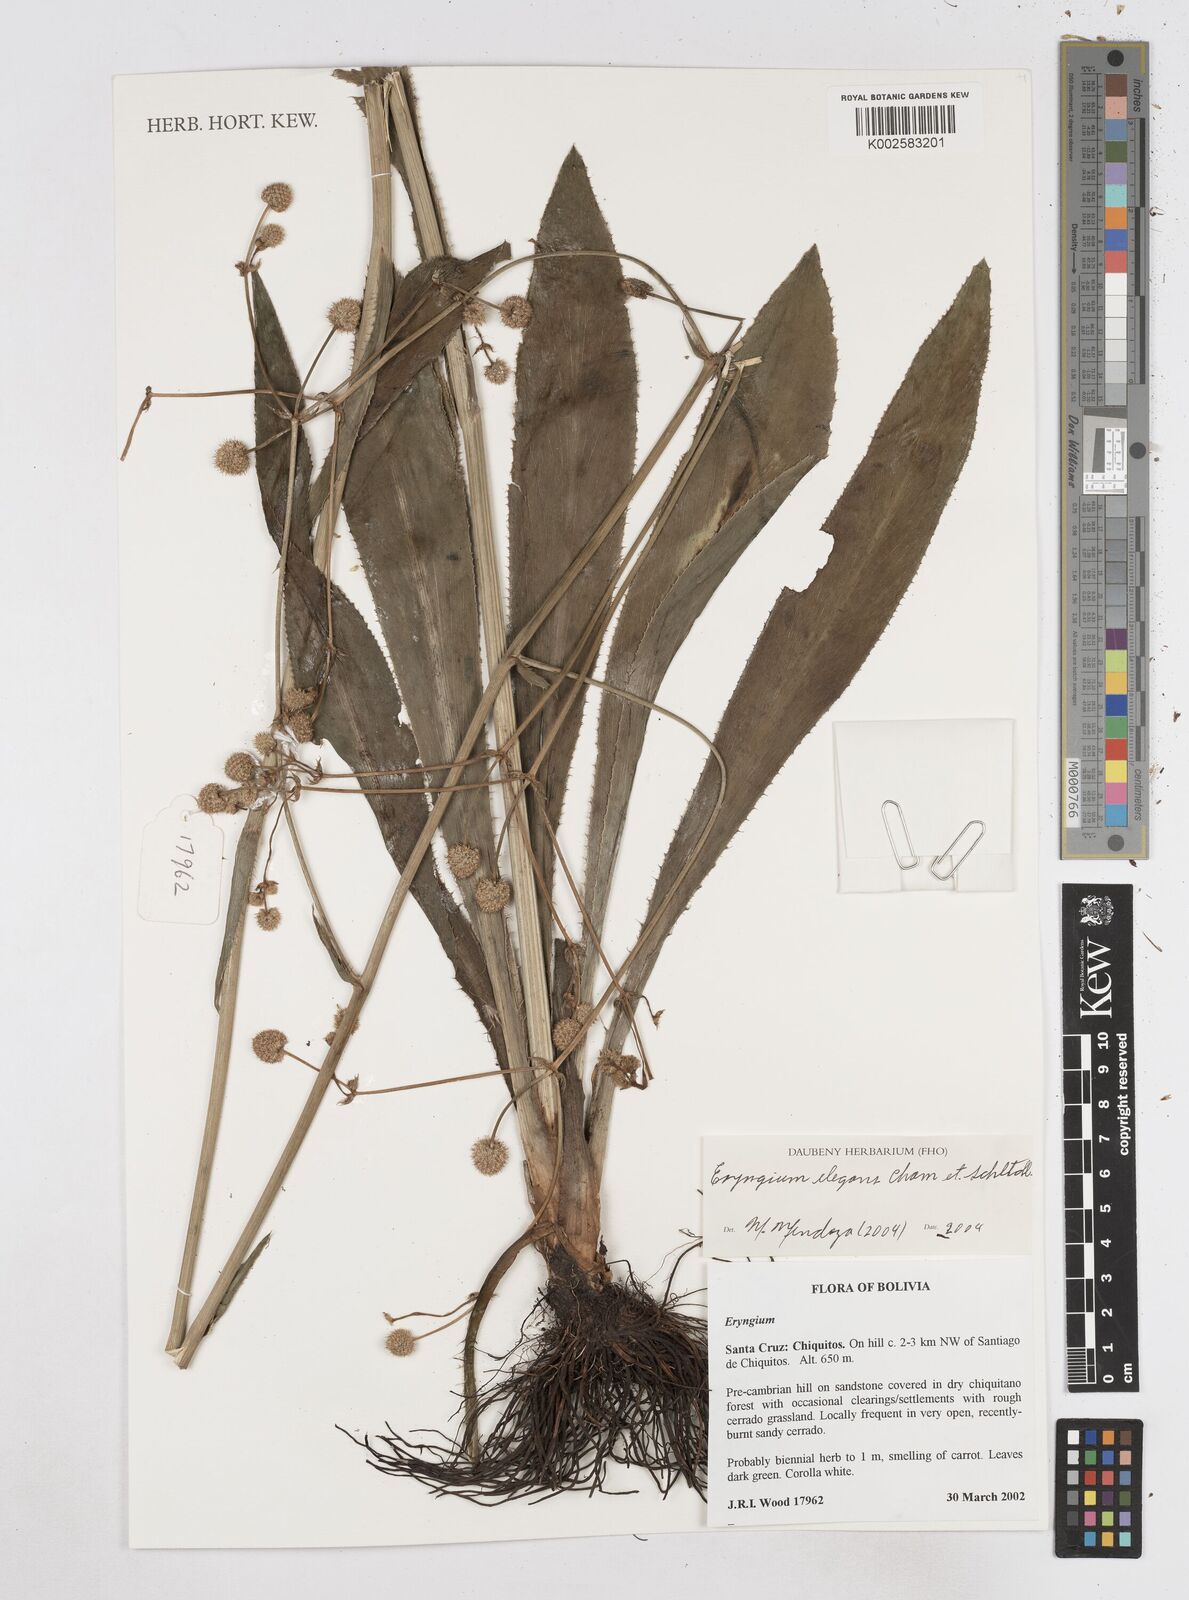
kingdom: Plantae
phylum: Tracheophyta
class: Magnoliopsida
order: Apiales
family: Apiaceae
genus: Eryngium
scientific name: Eryngium elegans
